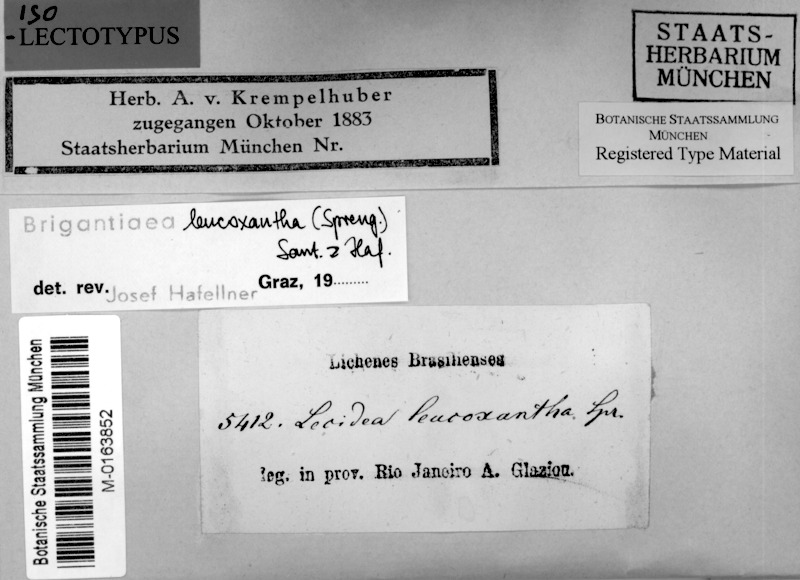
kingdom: Fungi
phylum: Ascomycota
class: Lecanoromycetes
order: Teloschistales
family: Brigantiaeaceae
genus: Brigantiaea
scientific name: Brigantiaea leucoxantha
